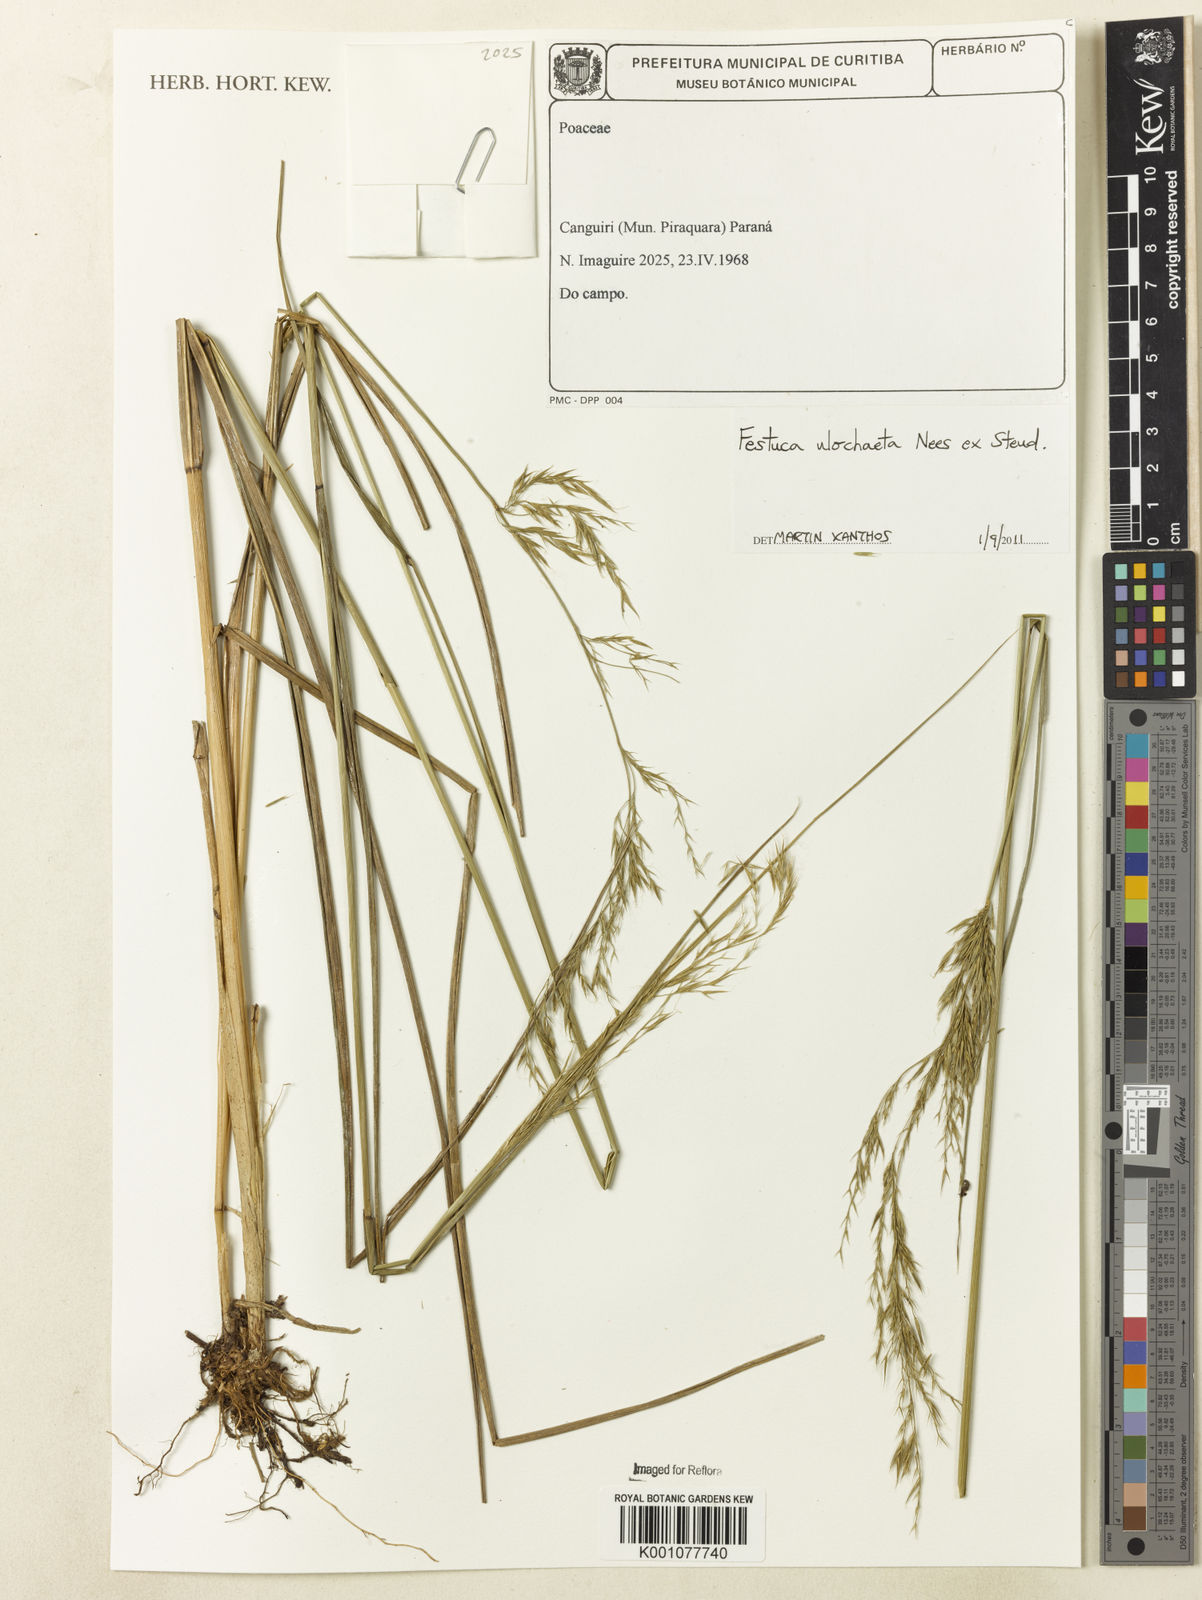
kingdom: Plantae
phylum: Tracheophyta
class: Liliopsida
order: Poales
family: Poaceae
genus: Festuca
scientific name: Festuca ulochaeta
